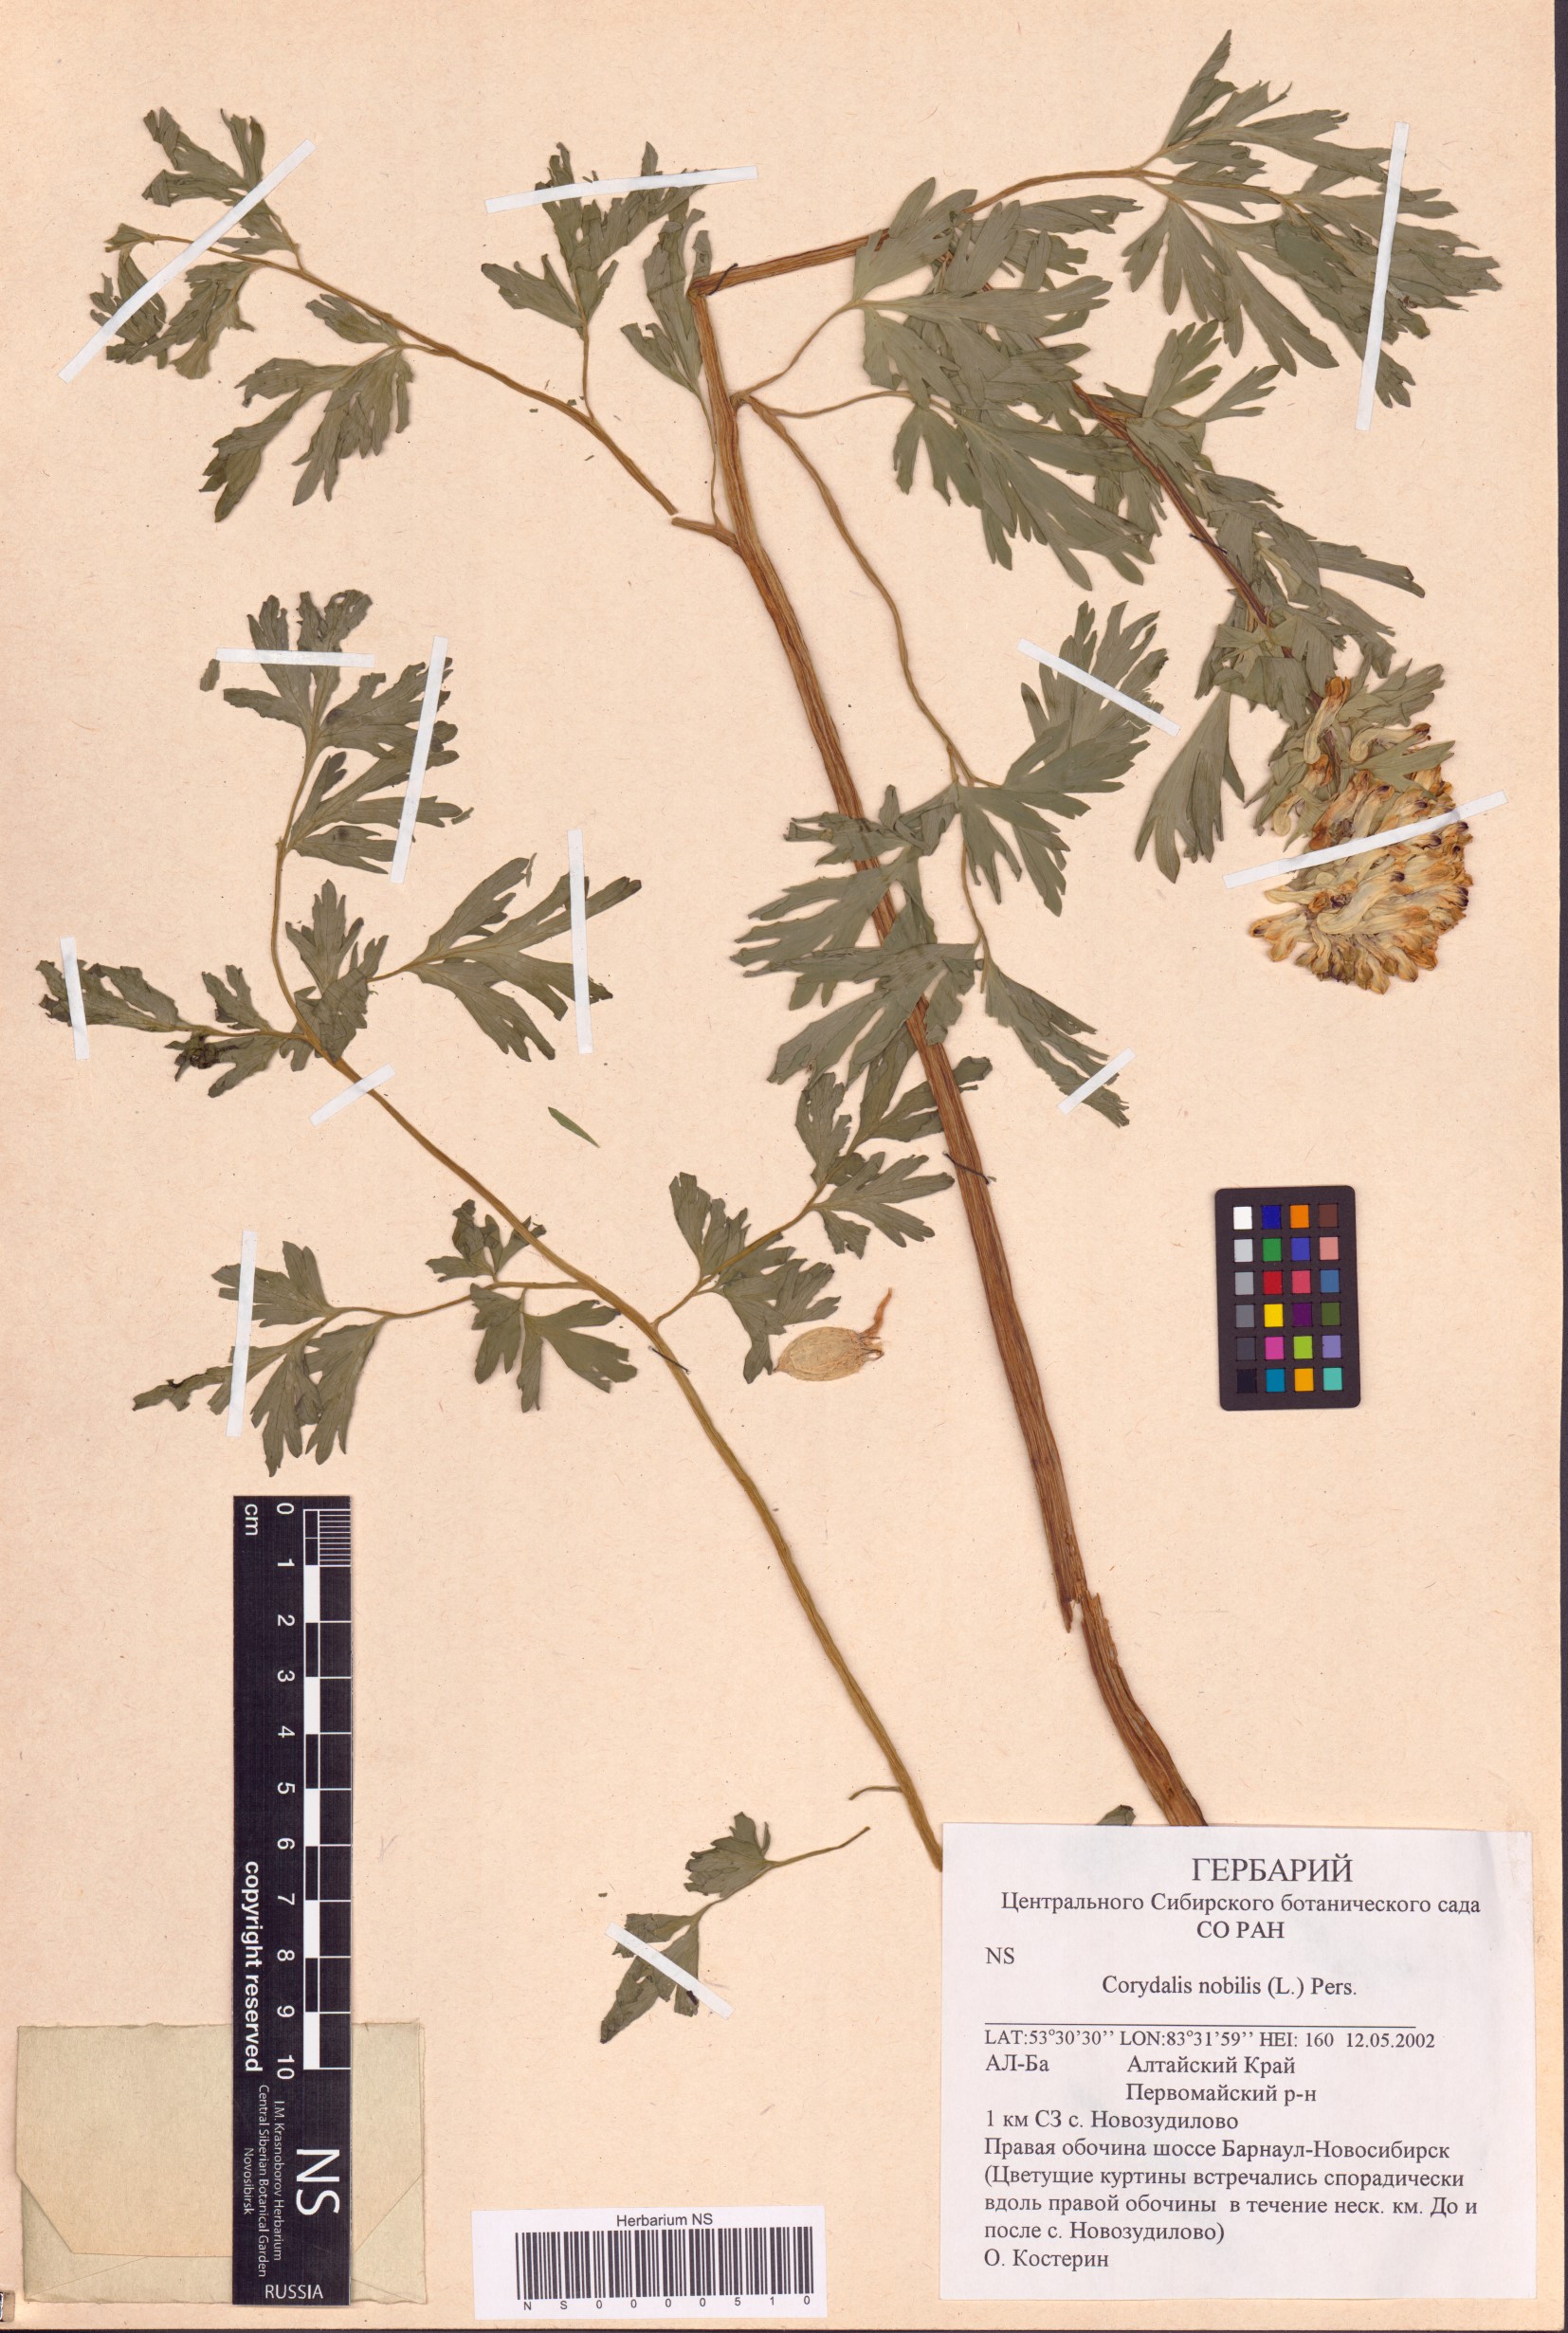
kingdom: Plantae
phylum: Tracheophyta
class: Magnoliopsida
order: Ranunculales
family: Papaveraceae
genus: Corydalis
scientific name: Corydalis nobilis
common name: Siberian corydalis
